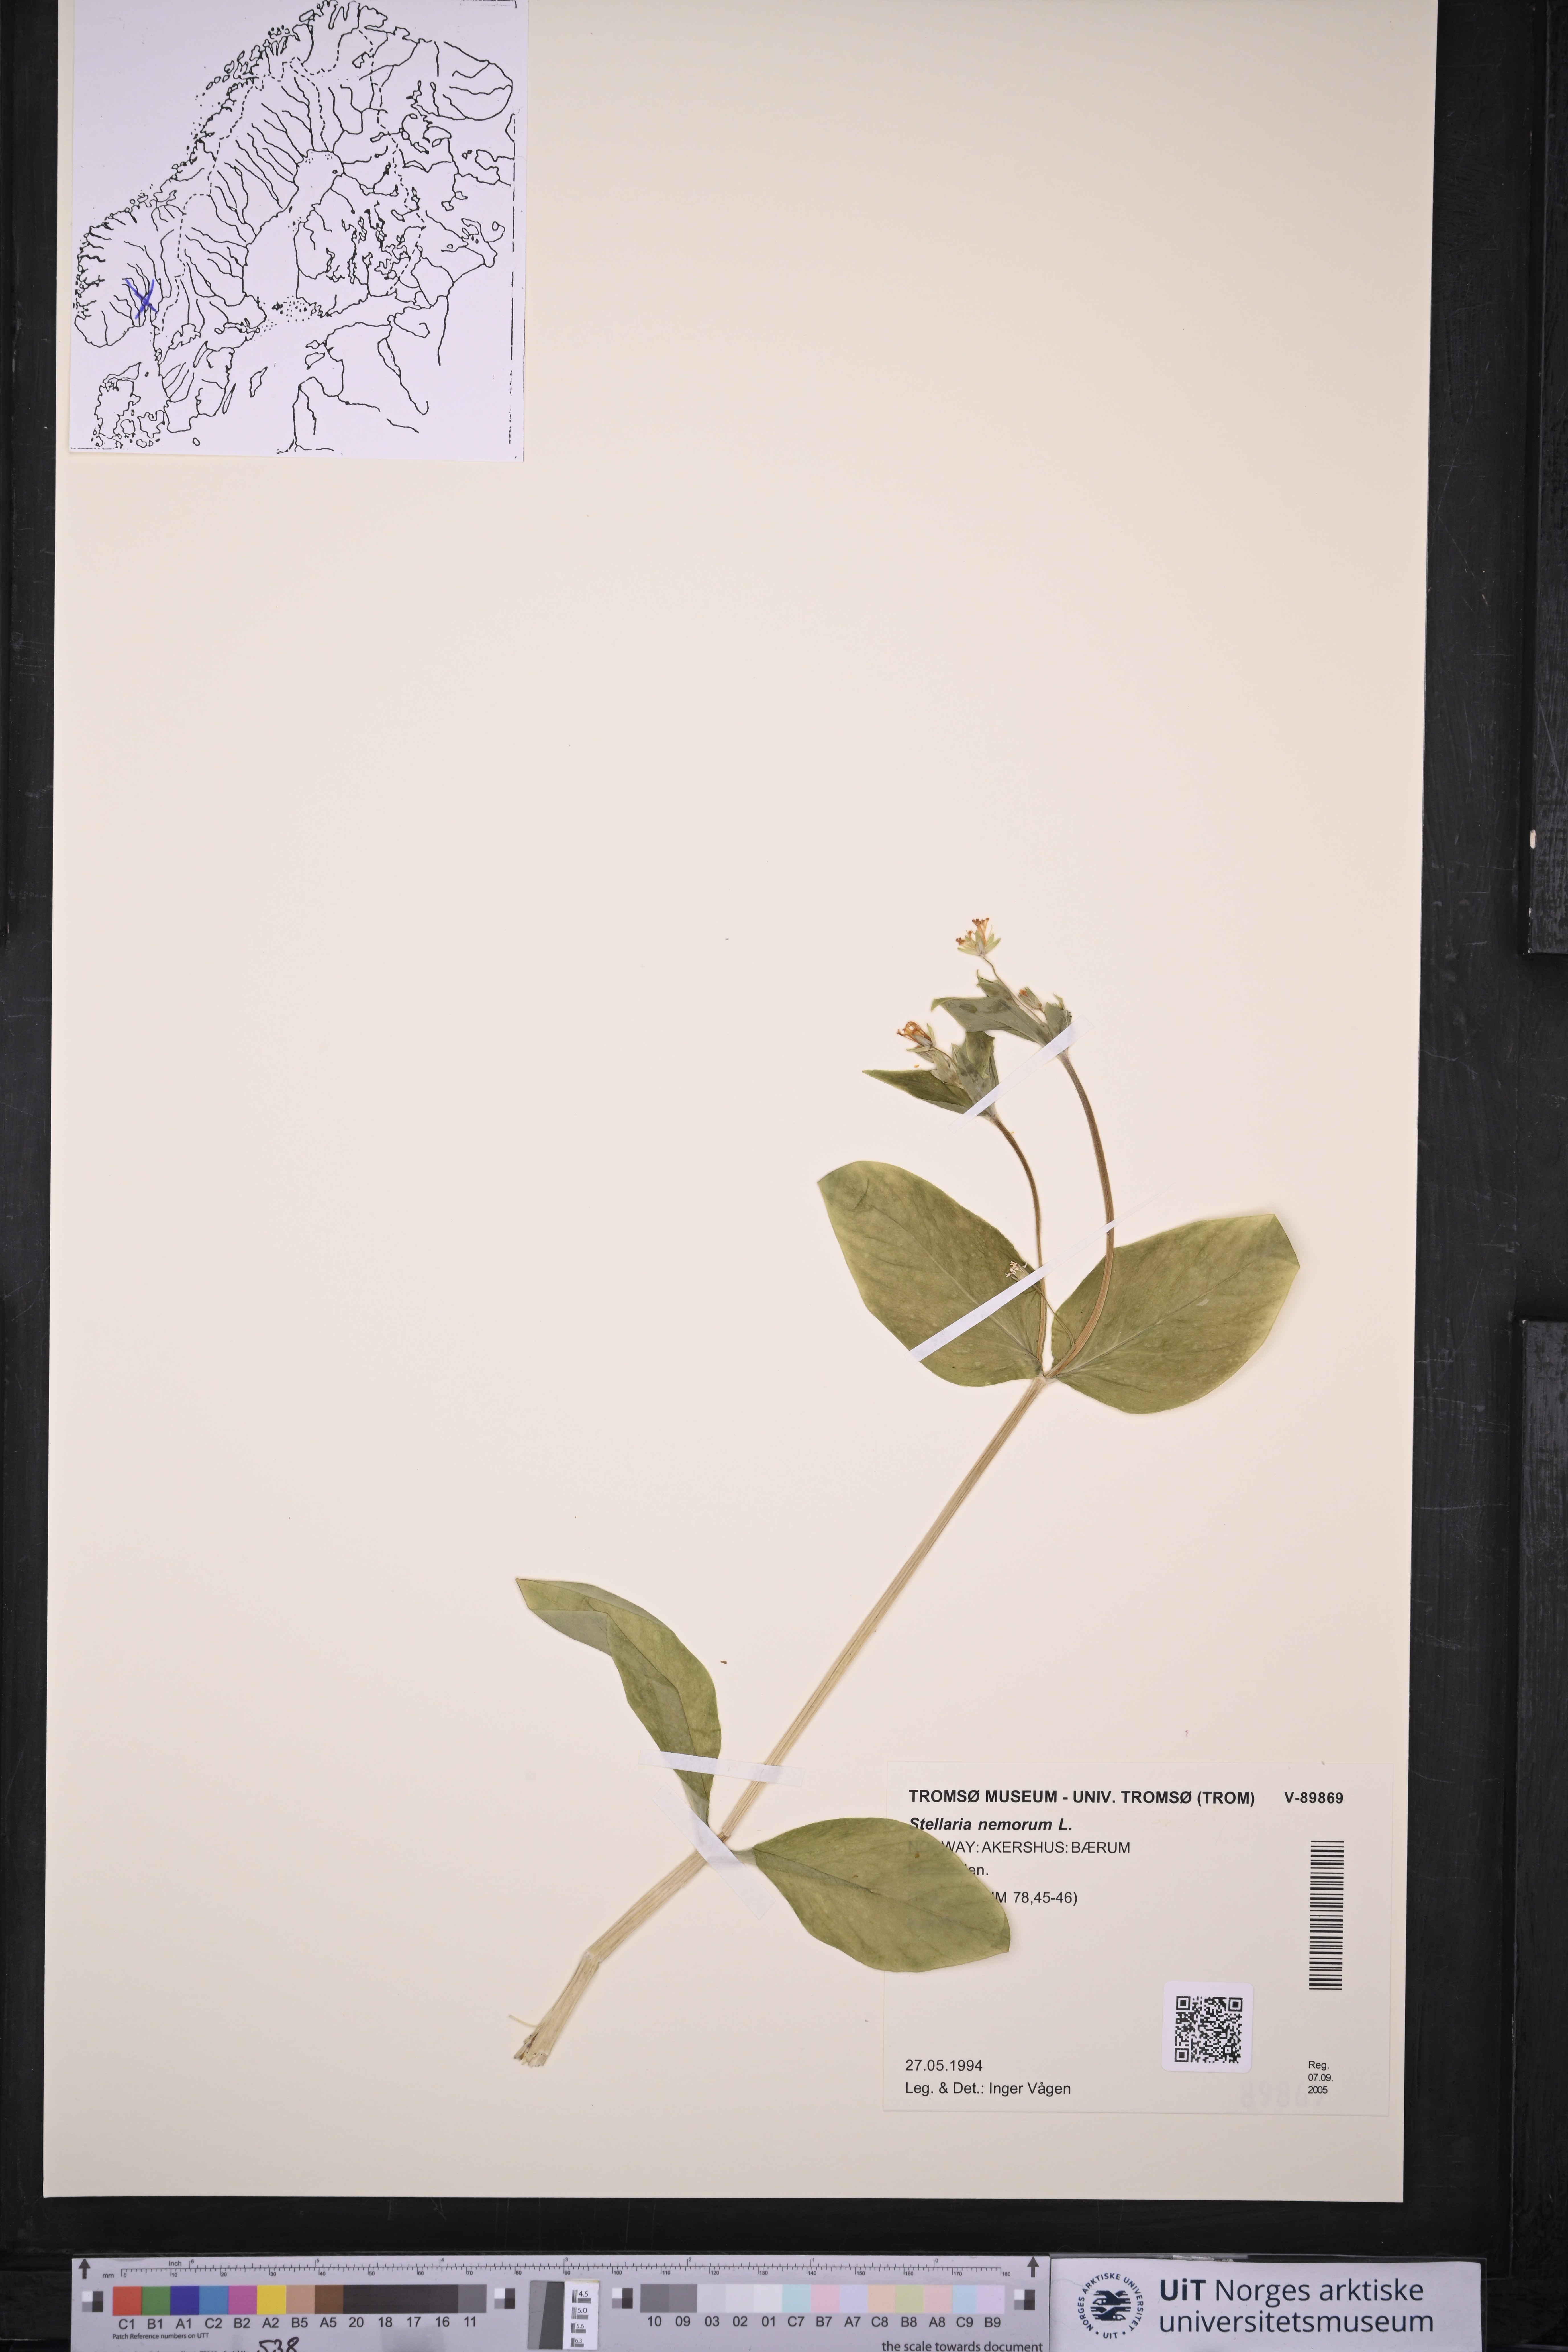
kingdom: Plantae
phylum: Tracheophyta
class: Magnoliopsida
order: Caryophyllales
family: Caryophyllaceae
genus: Stellaria
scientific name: Stellaria nemorum
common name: Wood stitchwort
